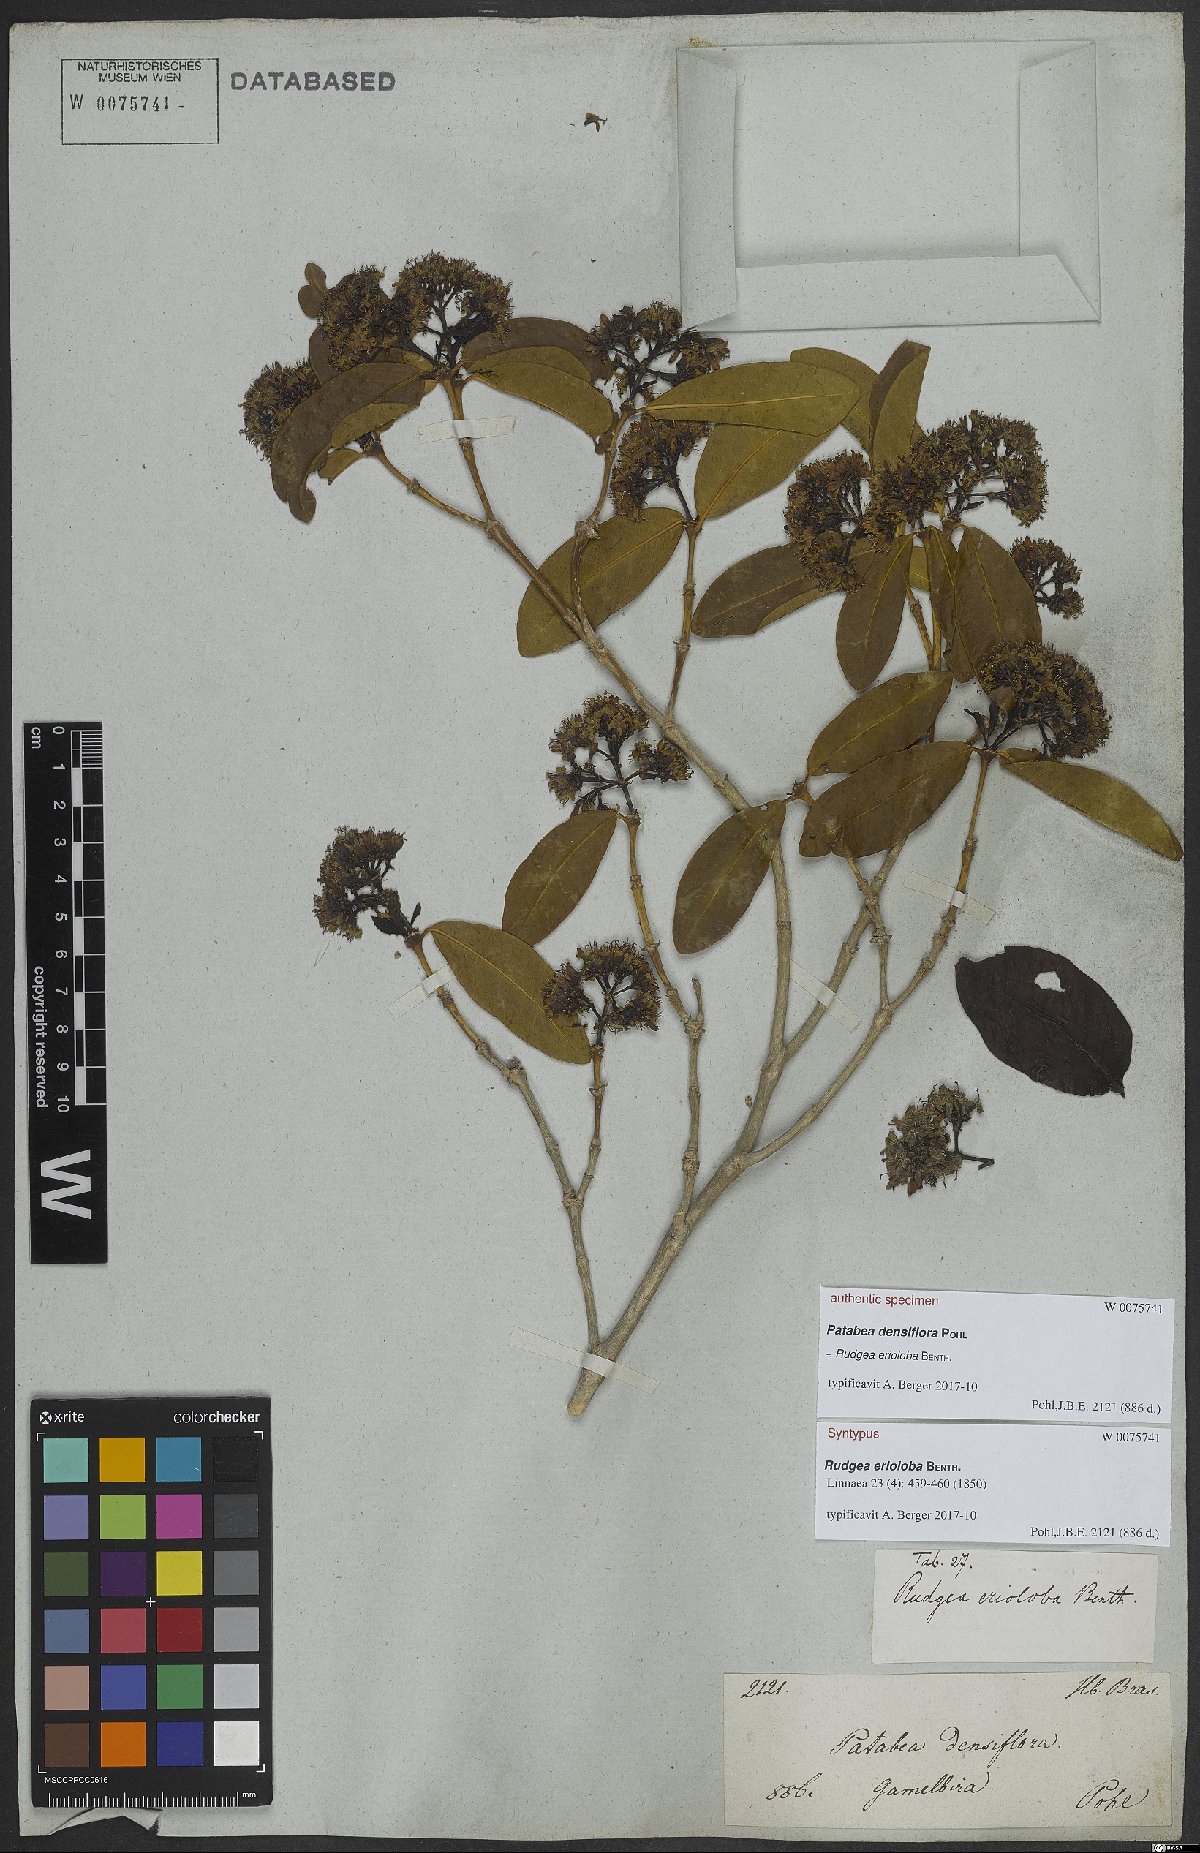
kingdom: Plantae
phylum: Tracheophyta
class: Magnoliopsida
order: Gentianales
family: Rubiaceae
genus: Rudgea
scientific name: Rudgea erioloba
